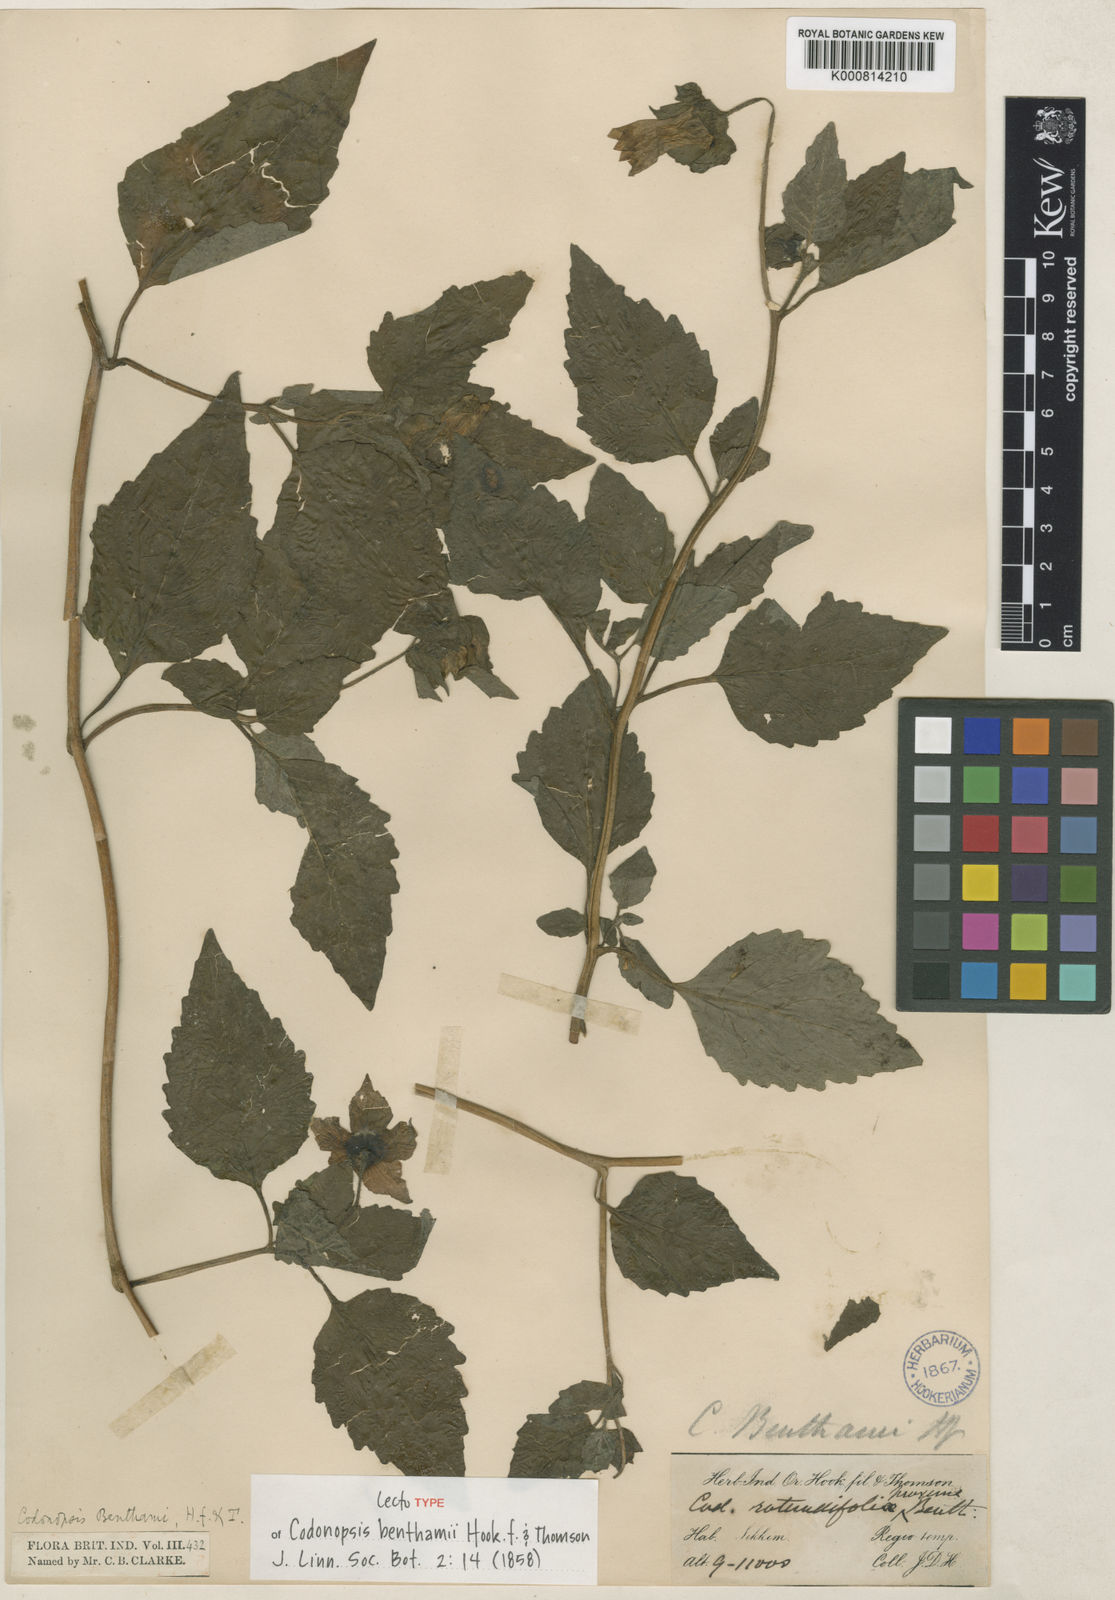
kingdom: Plantae
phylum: Tracheophyta
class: Magnoliopsida
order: Asterales
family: Campanulaceae
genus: Codonopsis
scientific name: Codonopsis benthamii
